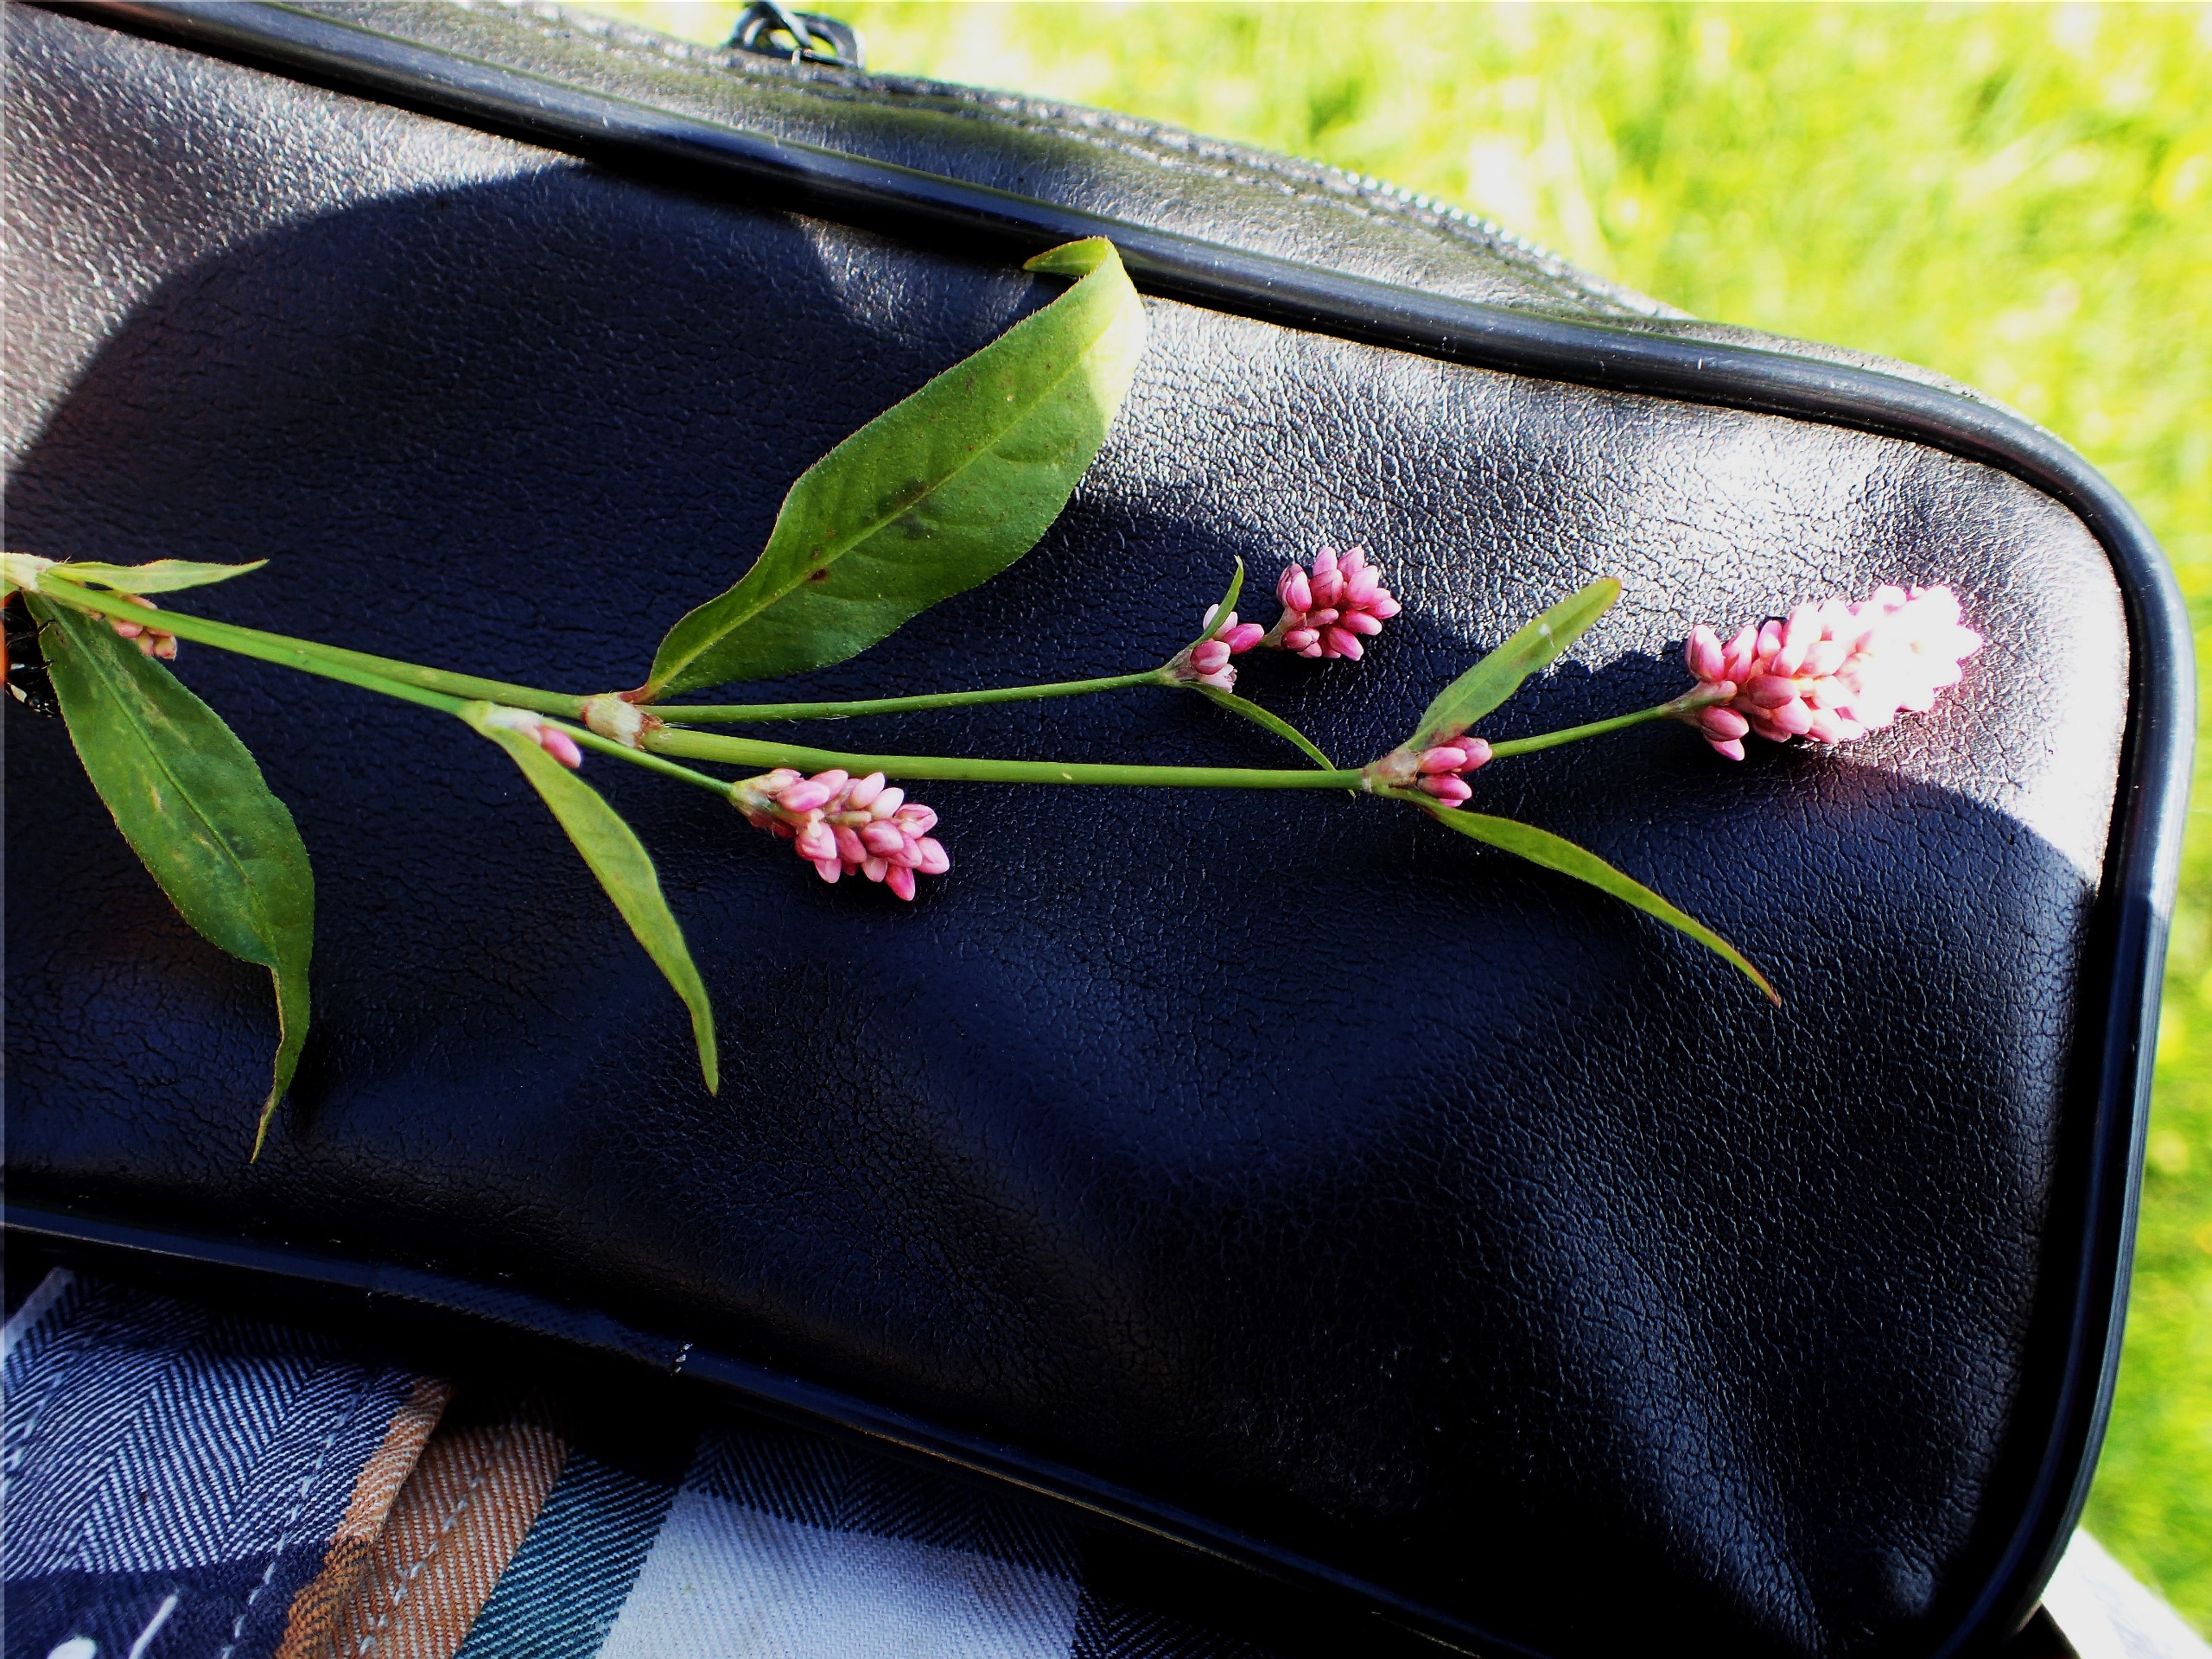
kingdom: Plantae
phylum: Tracheophyta
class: Magnoliopsida
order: Caryophyllales
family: Polygonaceae
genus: Persicaria
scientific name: Persicaria maculosa
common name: Fersken-pileurt
